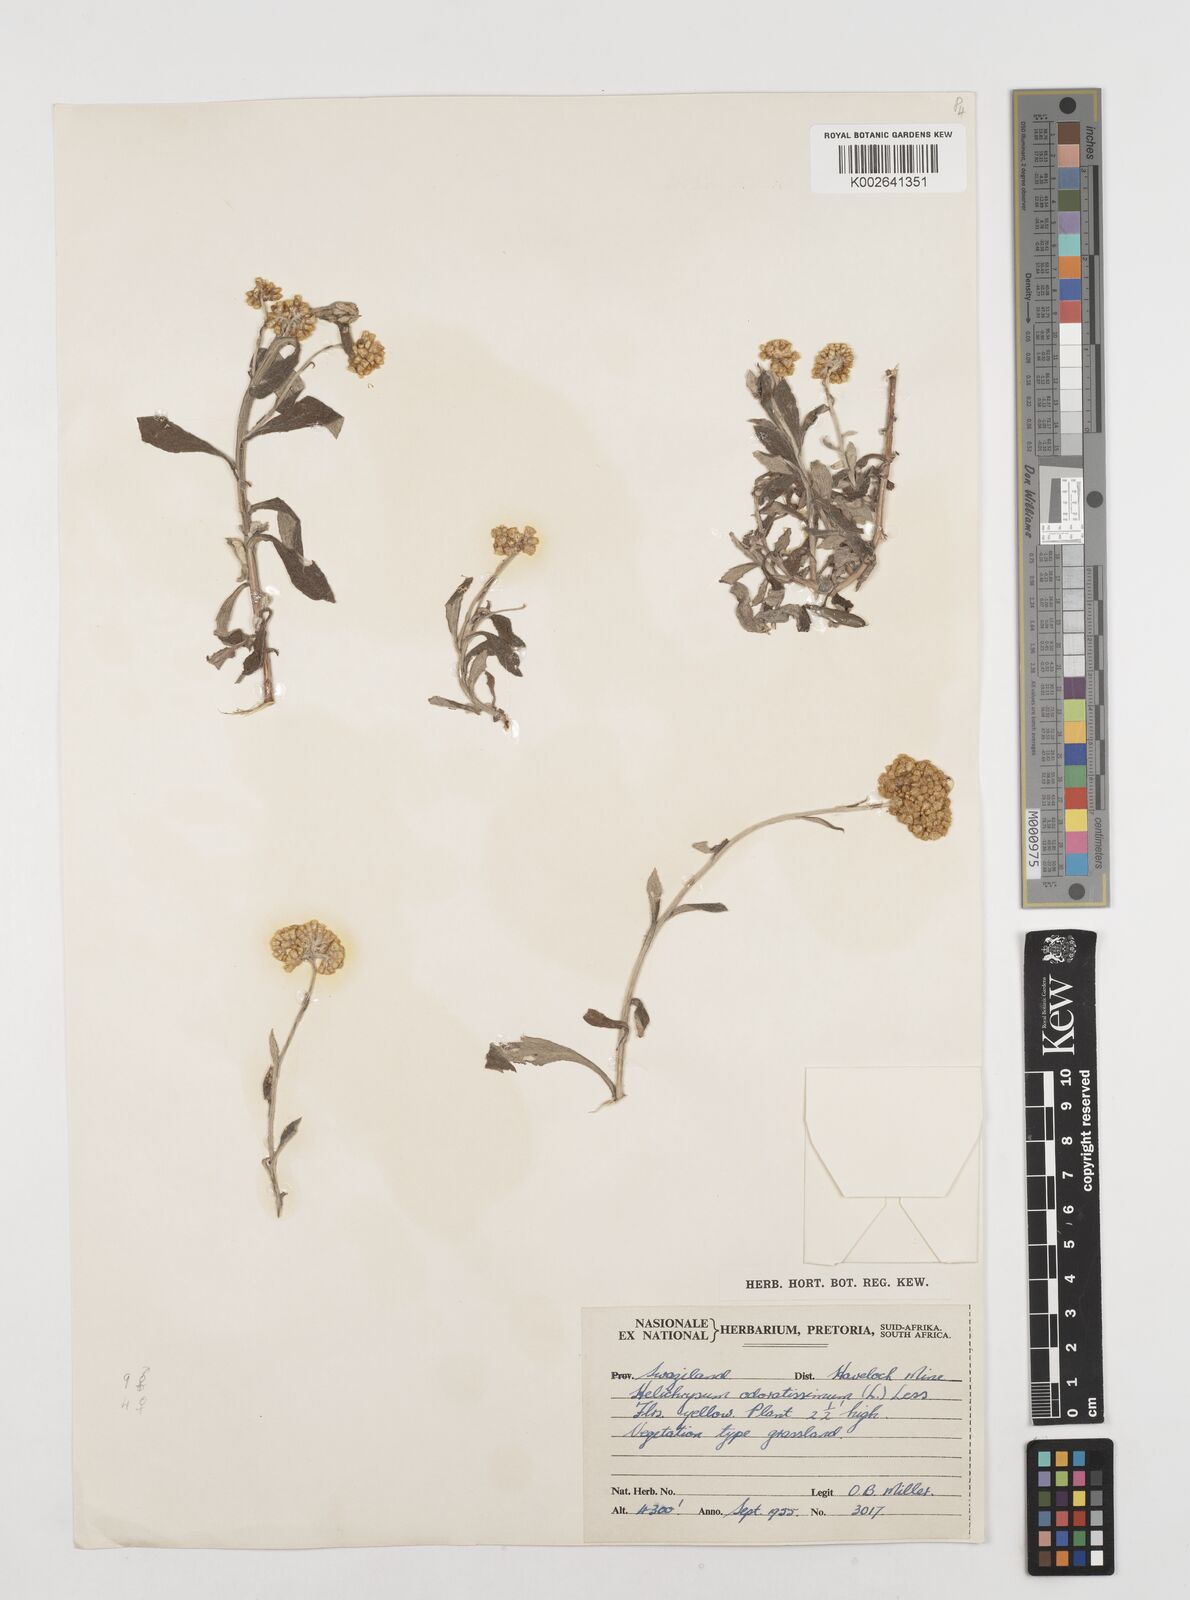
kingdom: Plantae
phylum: Tracheophyta
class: Magnoliopsida
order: Asterales
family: Asteraceae
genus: Helichrysum
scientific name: Helichrysum odoratissimum
